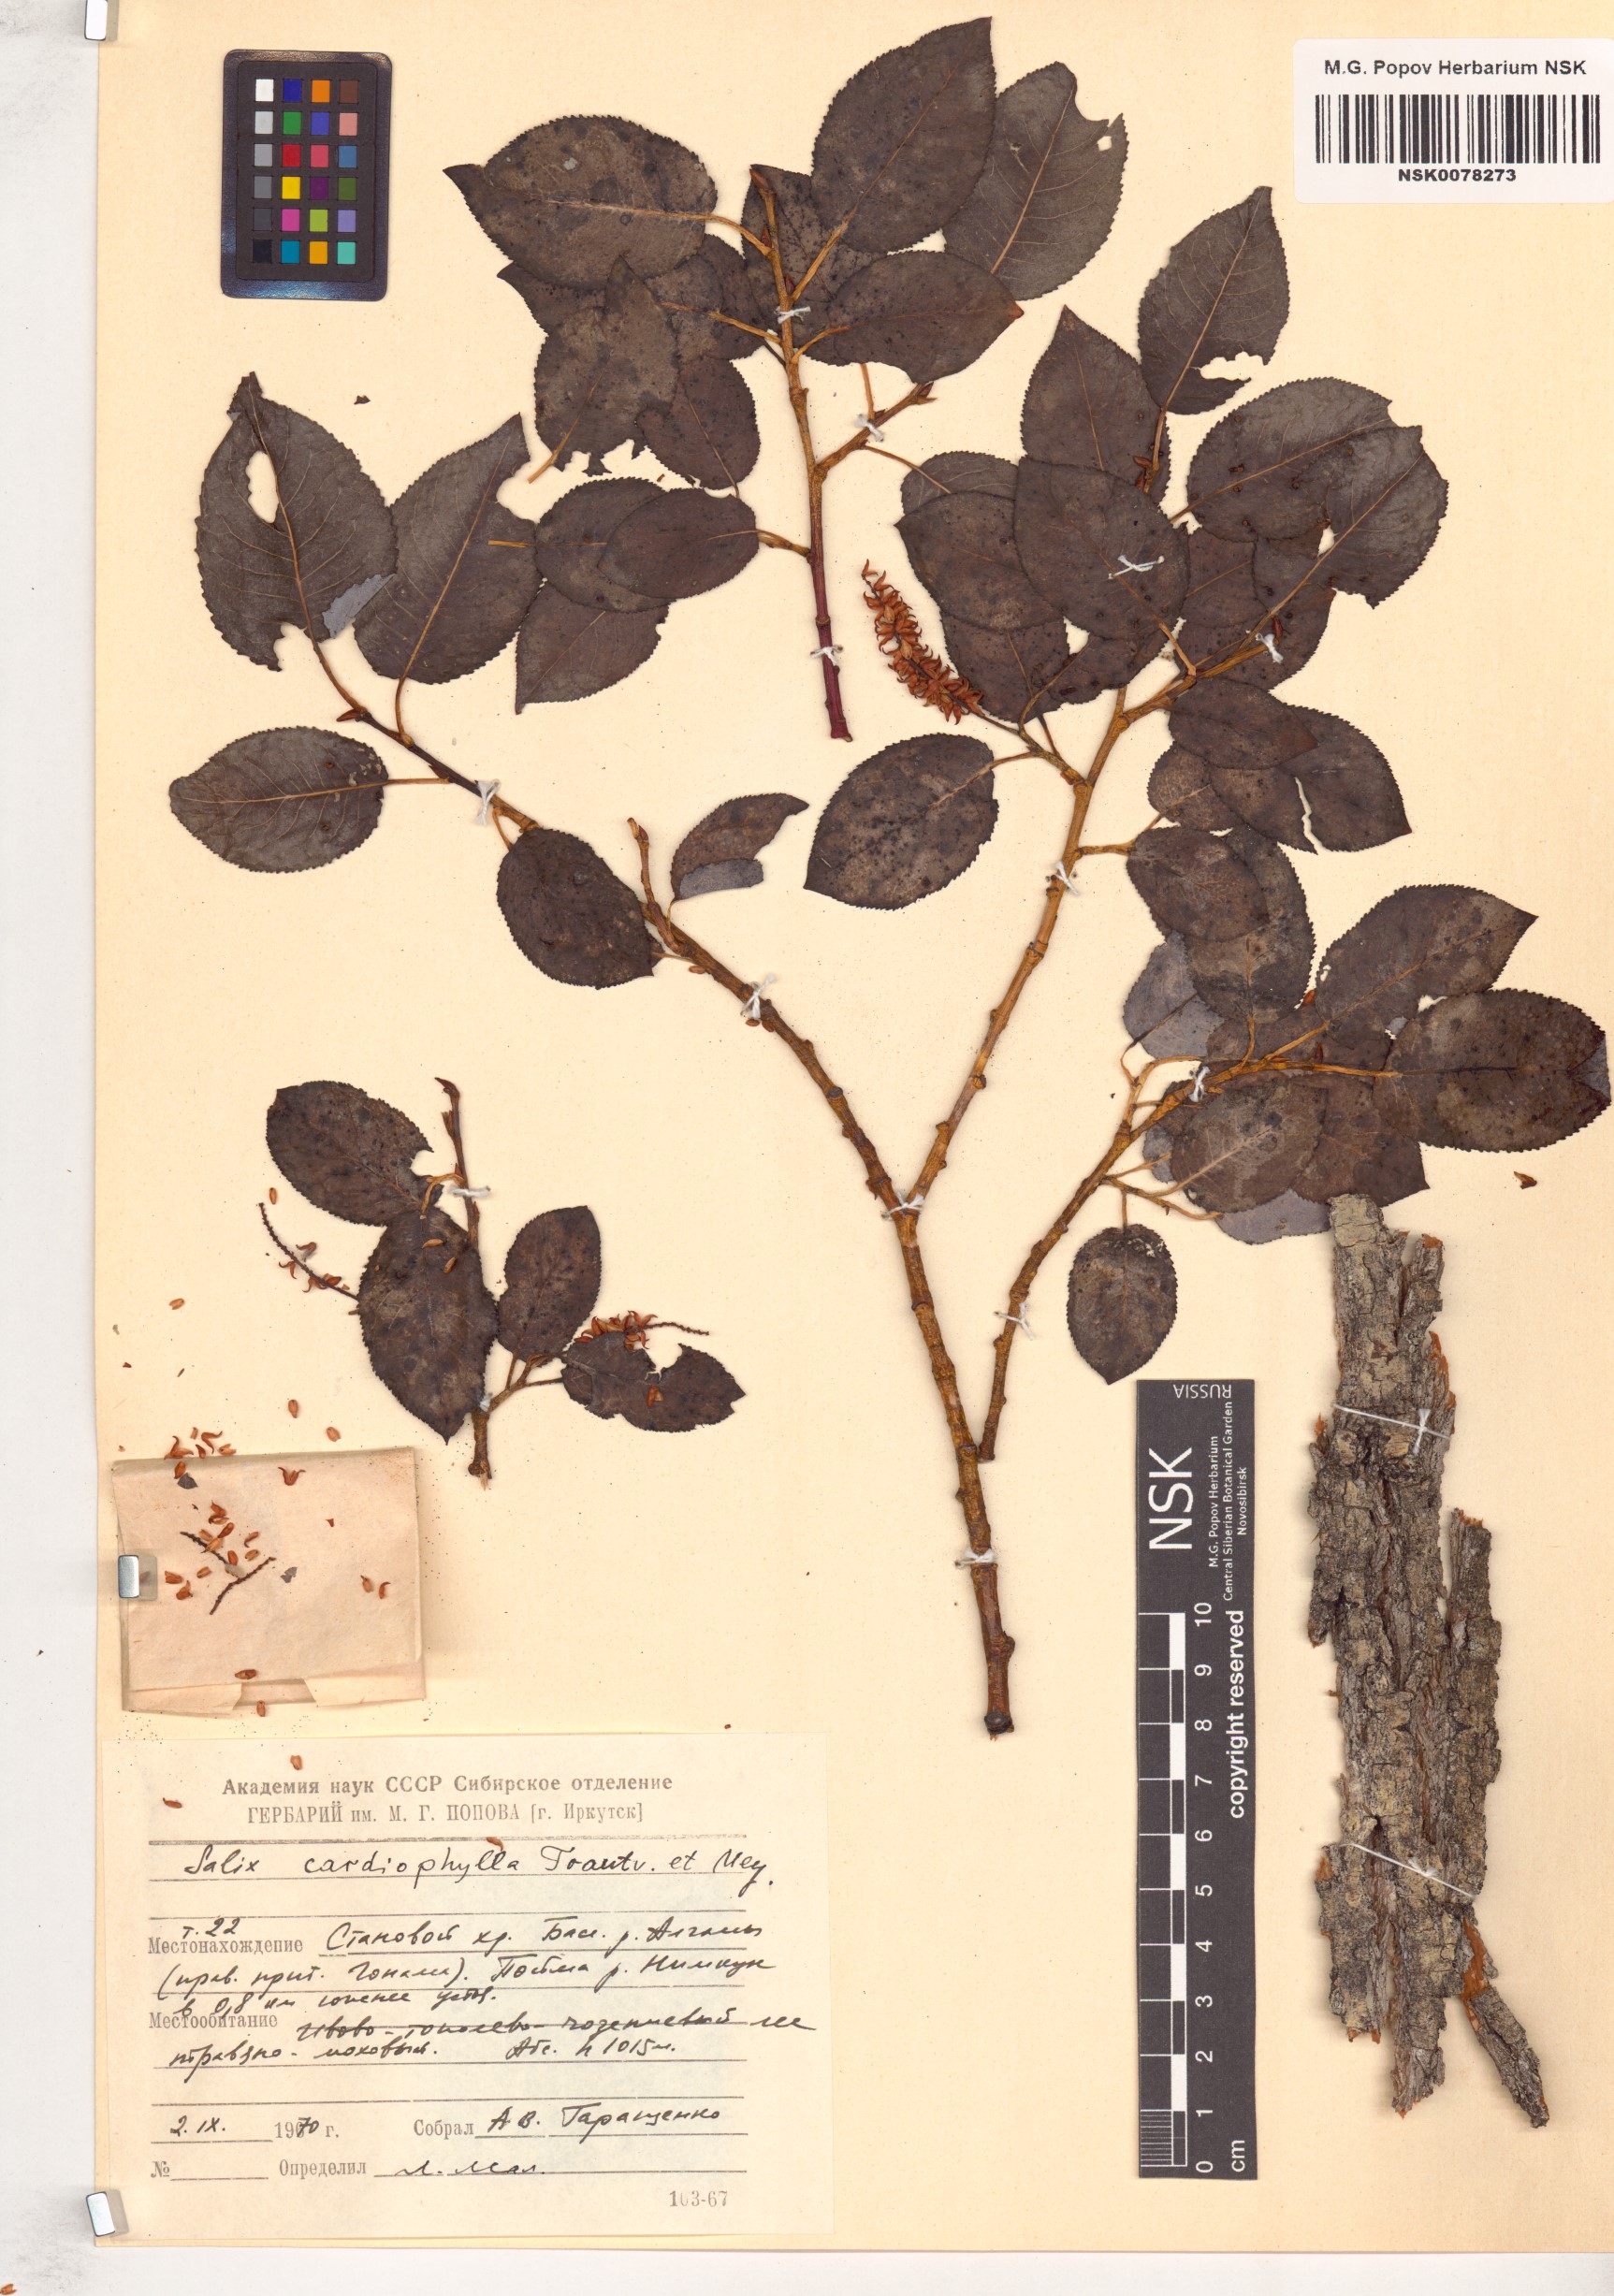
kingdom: Plantae
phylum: Tracheophyta
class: Magnoliopsida
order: Malpighiales
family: Salicaceae
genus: Chosenia
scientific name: Chosenia cardiophylla
